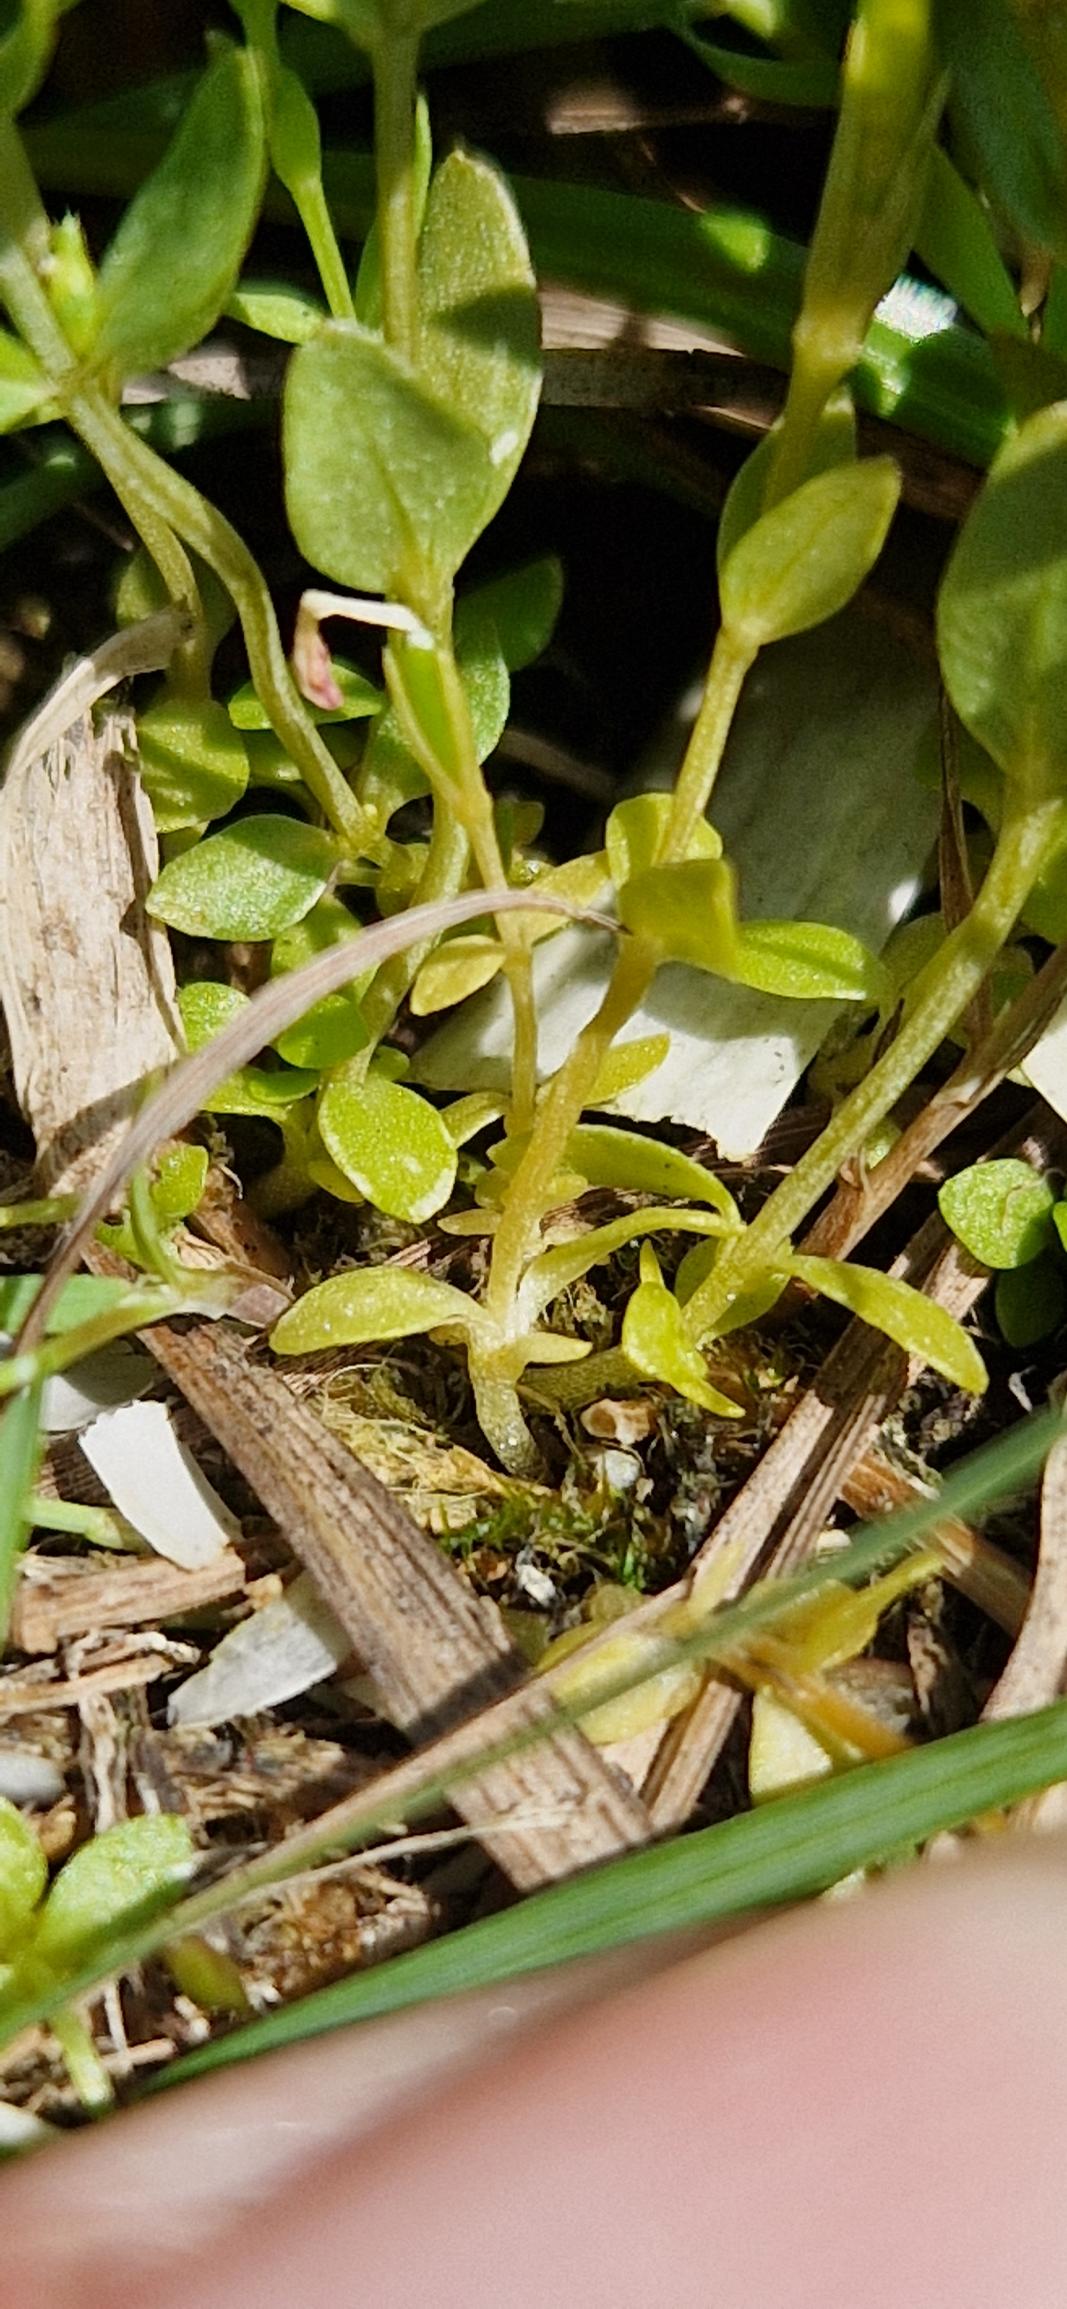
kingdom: Plantae
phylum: Tracheophyta
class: Magnoliopsida
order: Gentianales
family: Gentianaceae
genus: Centaurium
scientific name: Centaurium pulchellum
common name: Liden tusindgylden
